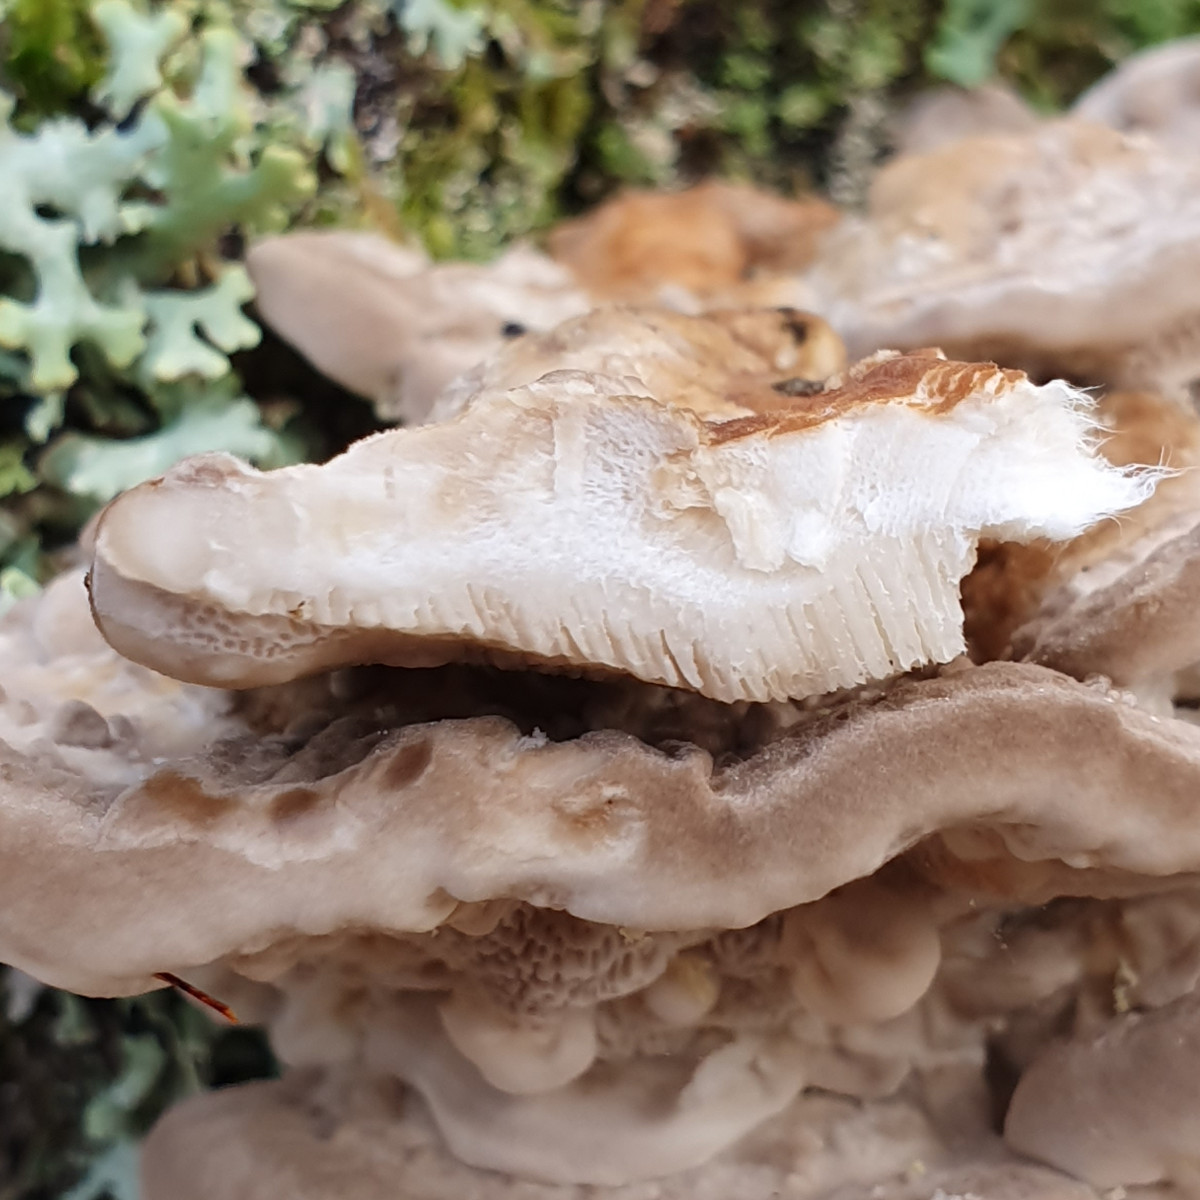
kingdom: Fungi
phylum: Basidiomycota
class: Agaricomycetes
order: Polyporales
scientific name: Polyporales
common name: poresvampordenen
